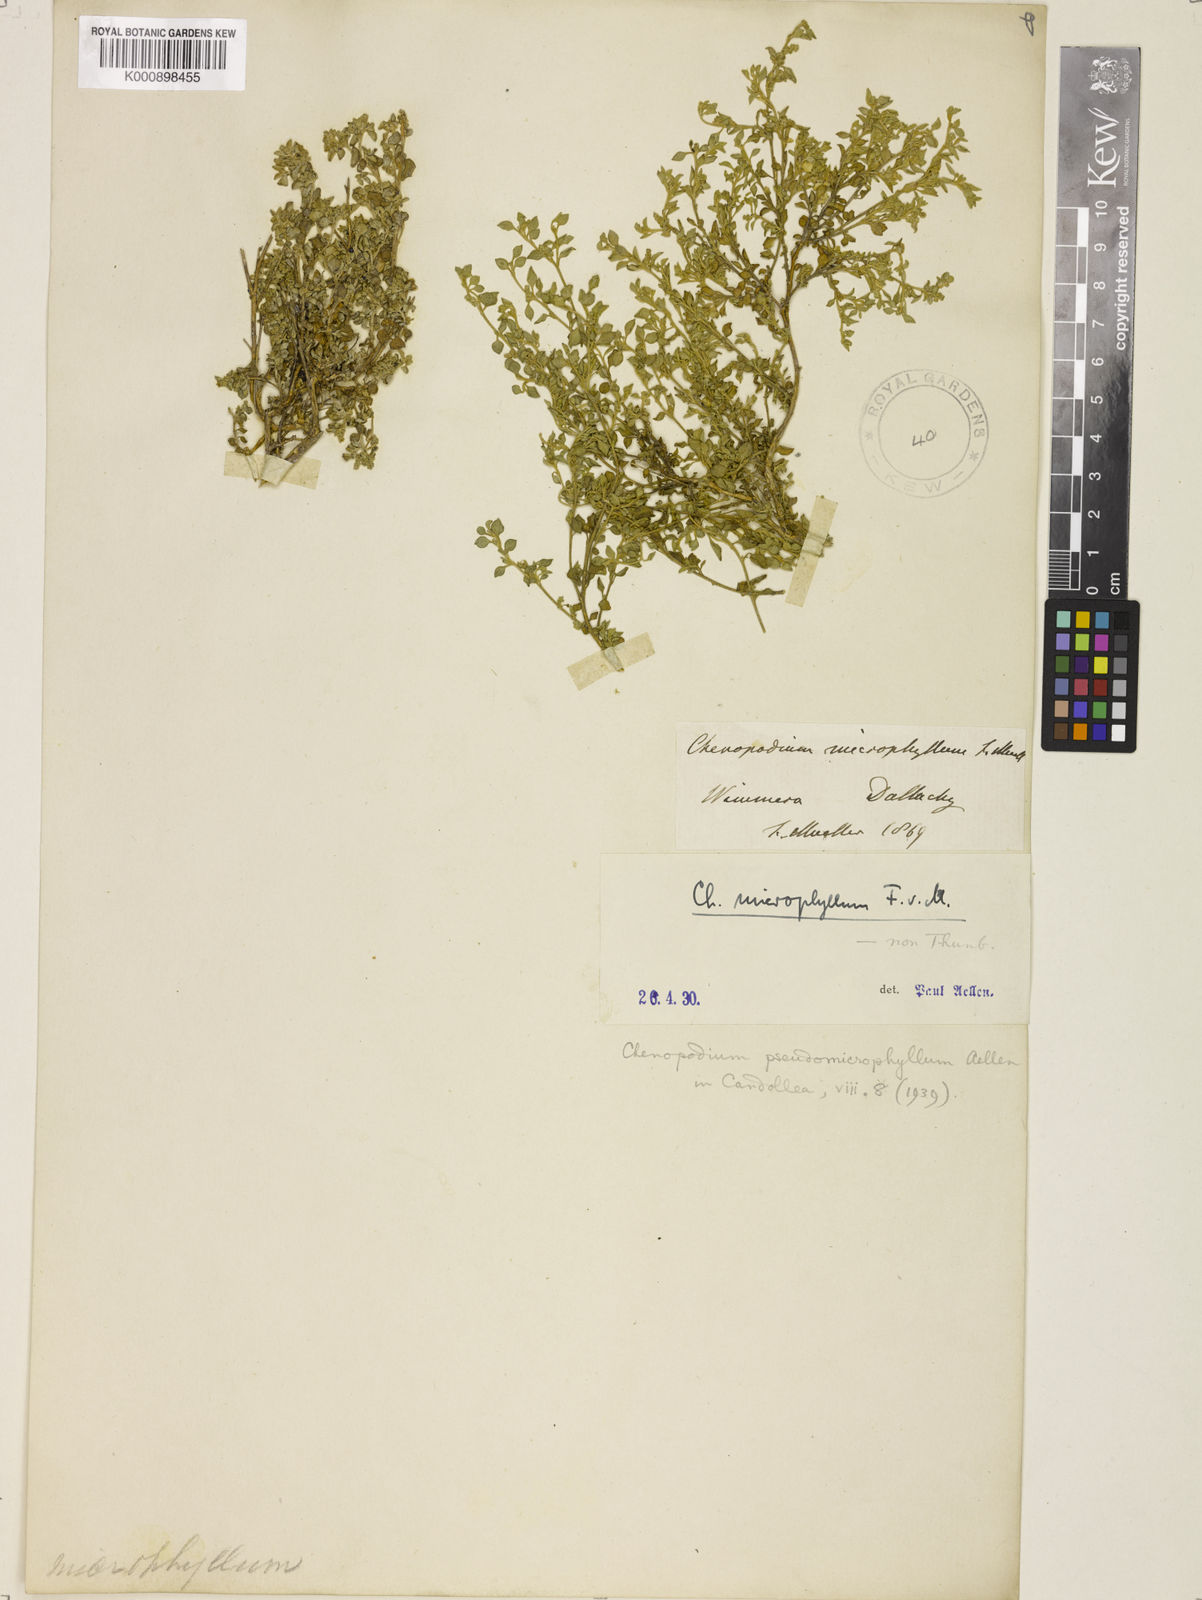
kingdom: Plantae
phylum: Tracheophyta
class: Magnoliopsida
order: Caryophyllales
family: Amaranthaceae
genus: Chenopodium
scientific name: Chenopodium desertorum
